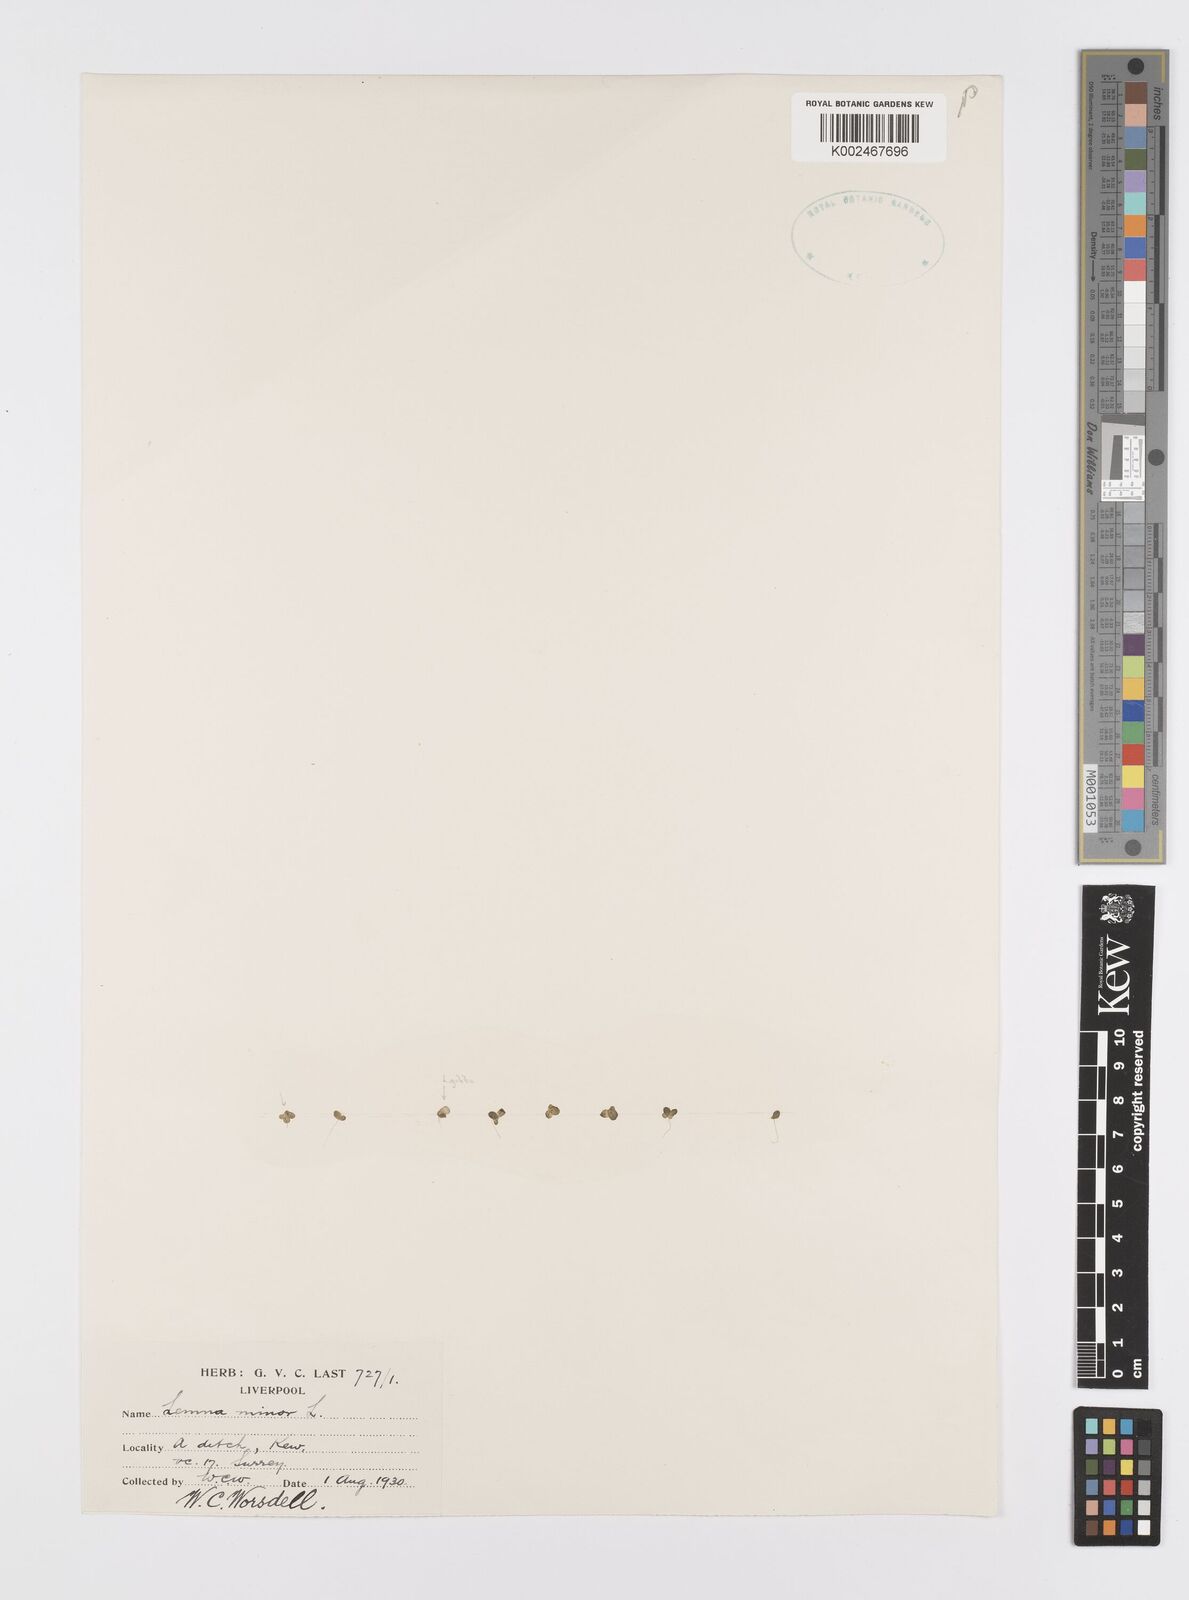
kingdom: Plantae
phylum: Tracheophyta
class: Liliopsida
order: Alismatales
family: Araceae
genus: Lemna
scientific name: Lemna minor
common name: Common duckweed
